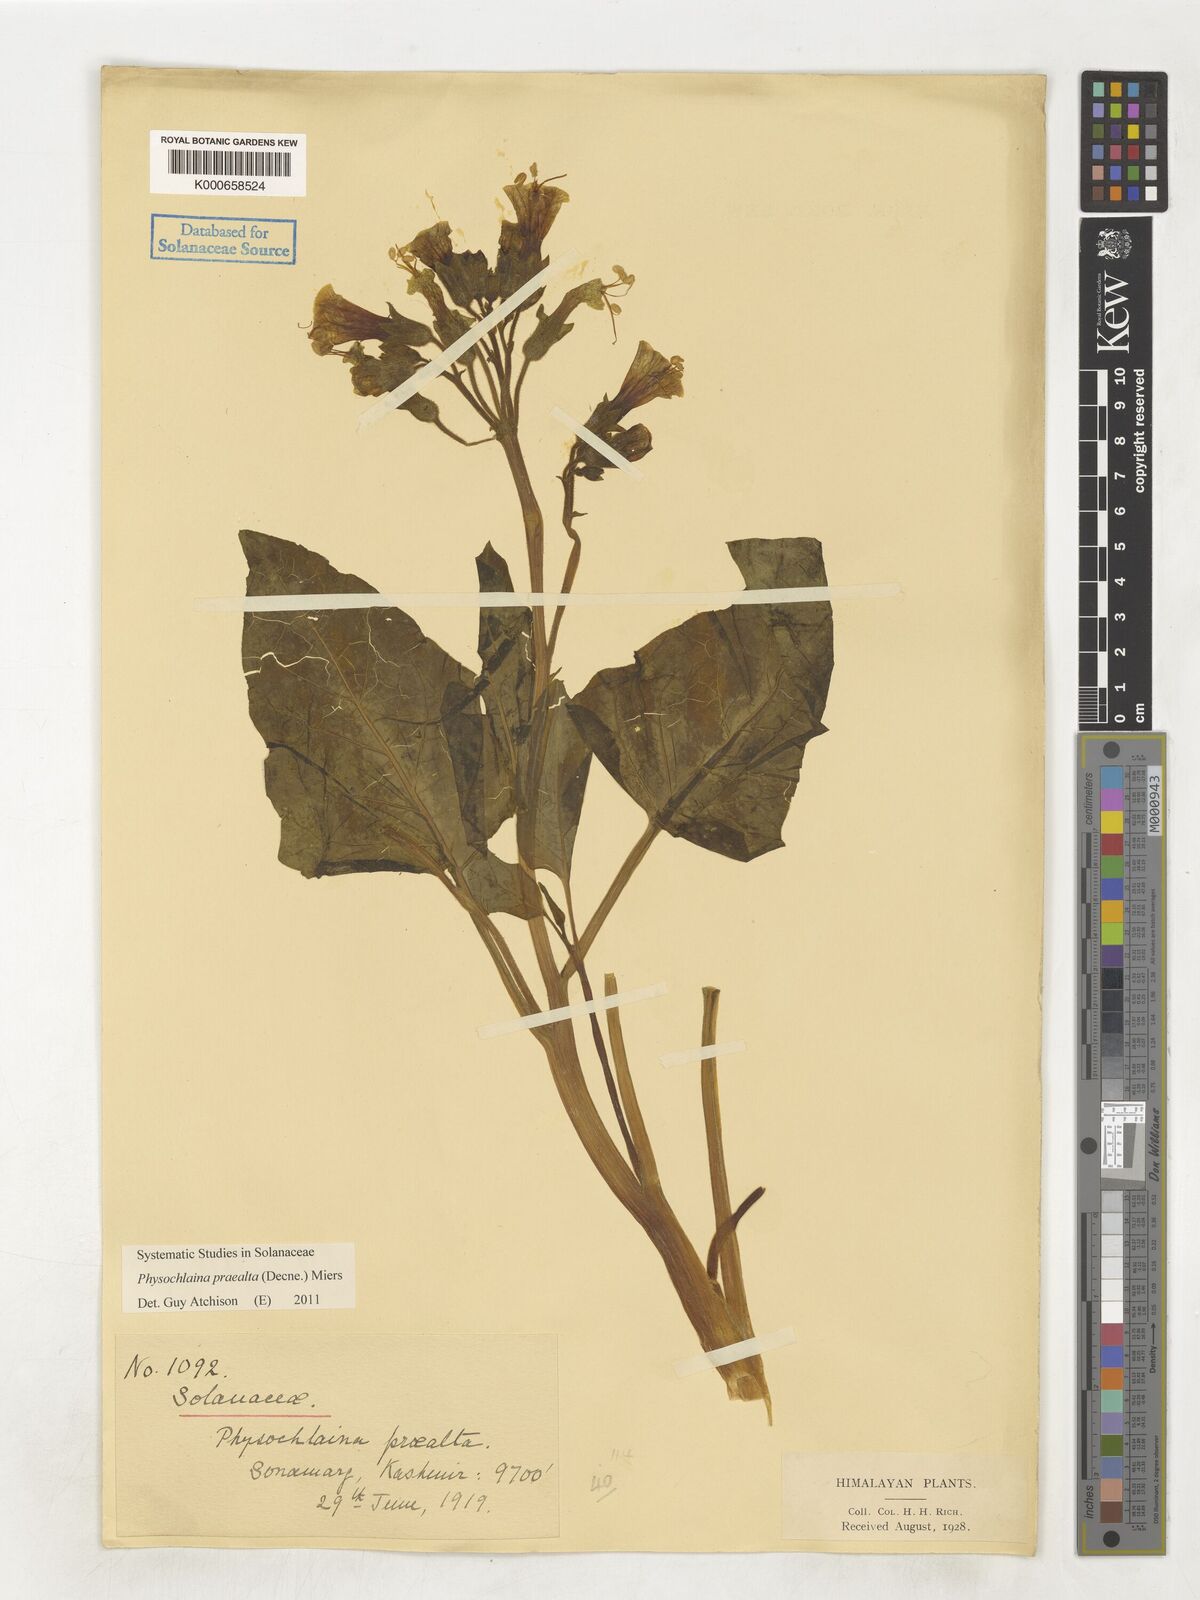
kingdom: Plantae
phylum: Tracheophyta
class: Magnoliopsida
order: Solanales
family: Solanaceae
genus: Physochlaina
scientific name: Physochlaina praealta
